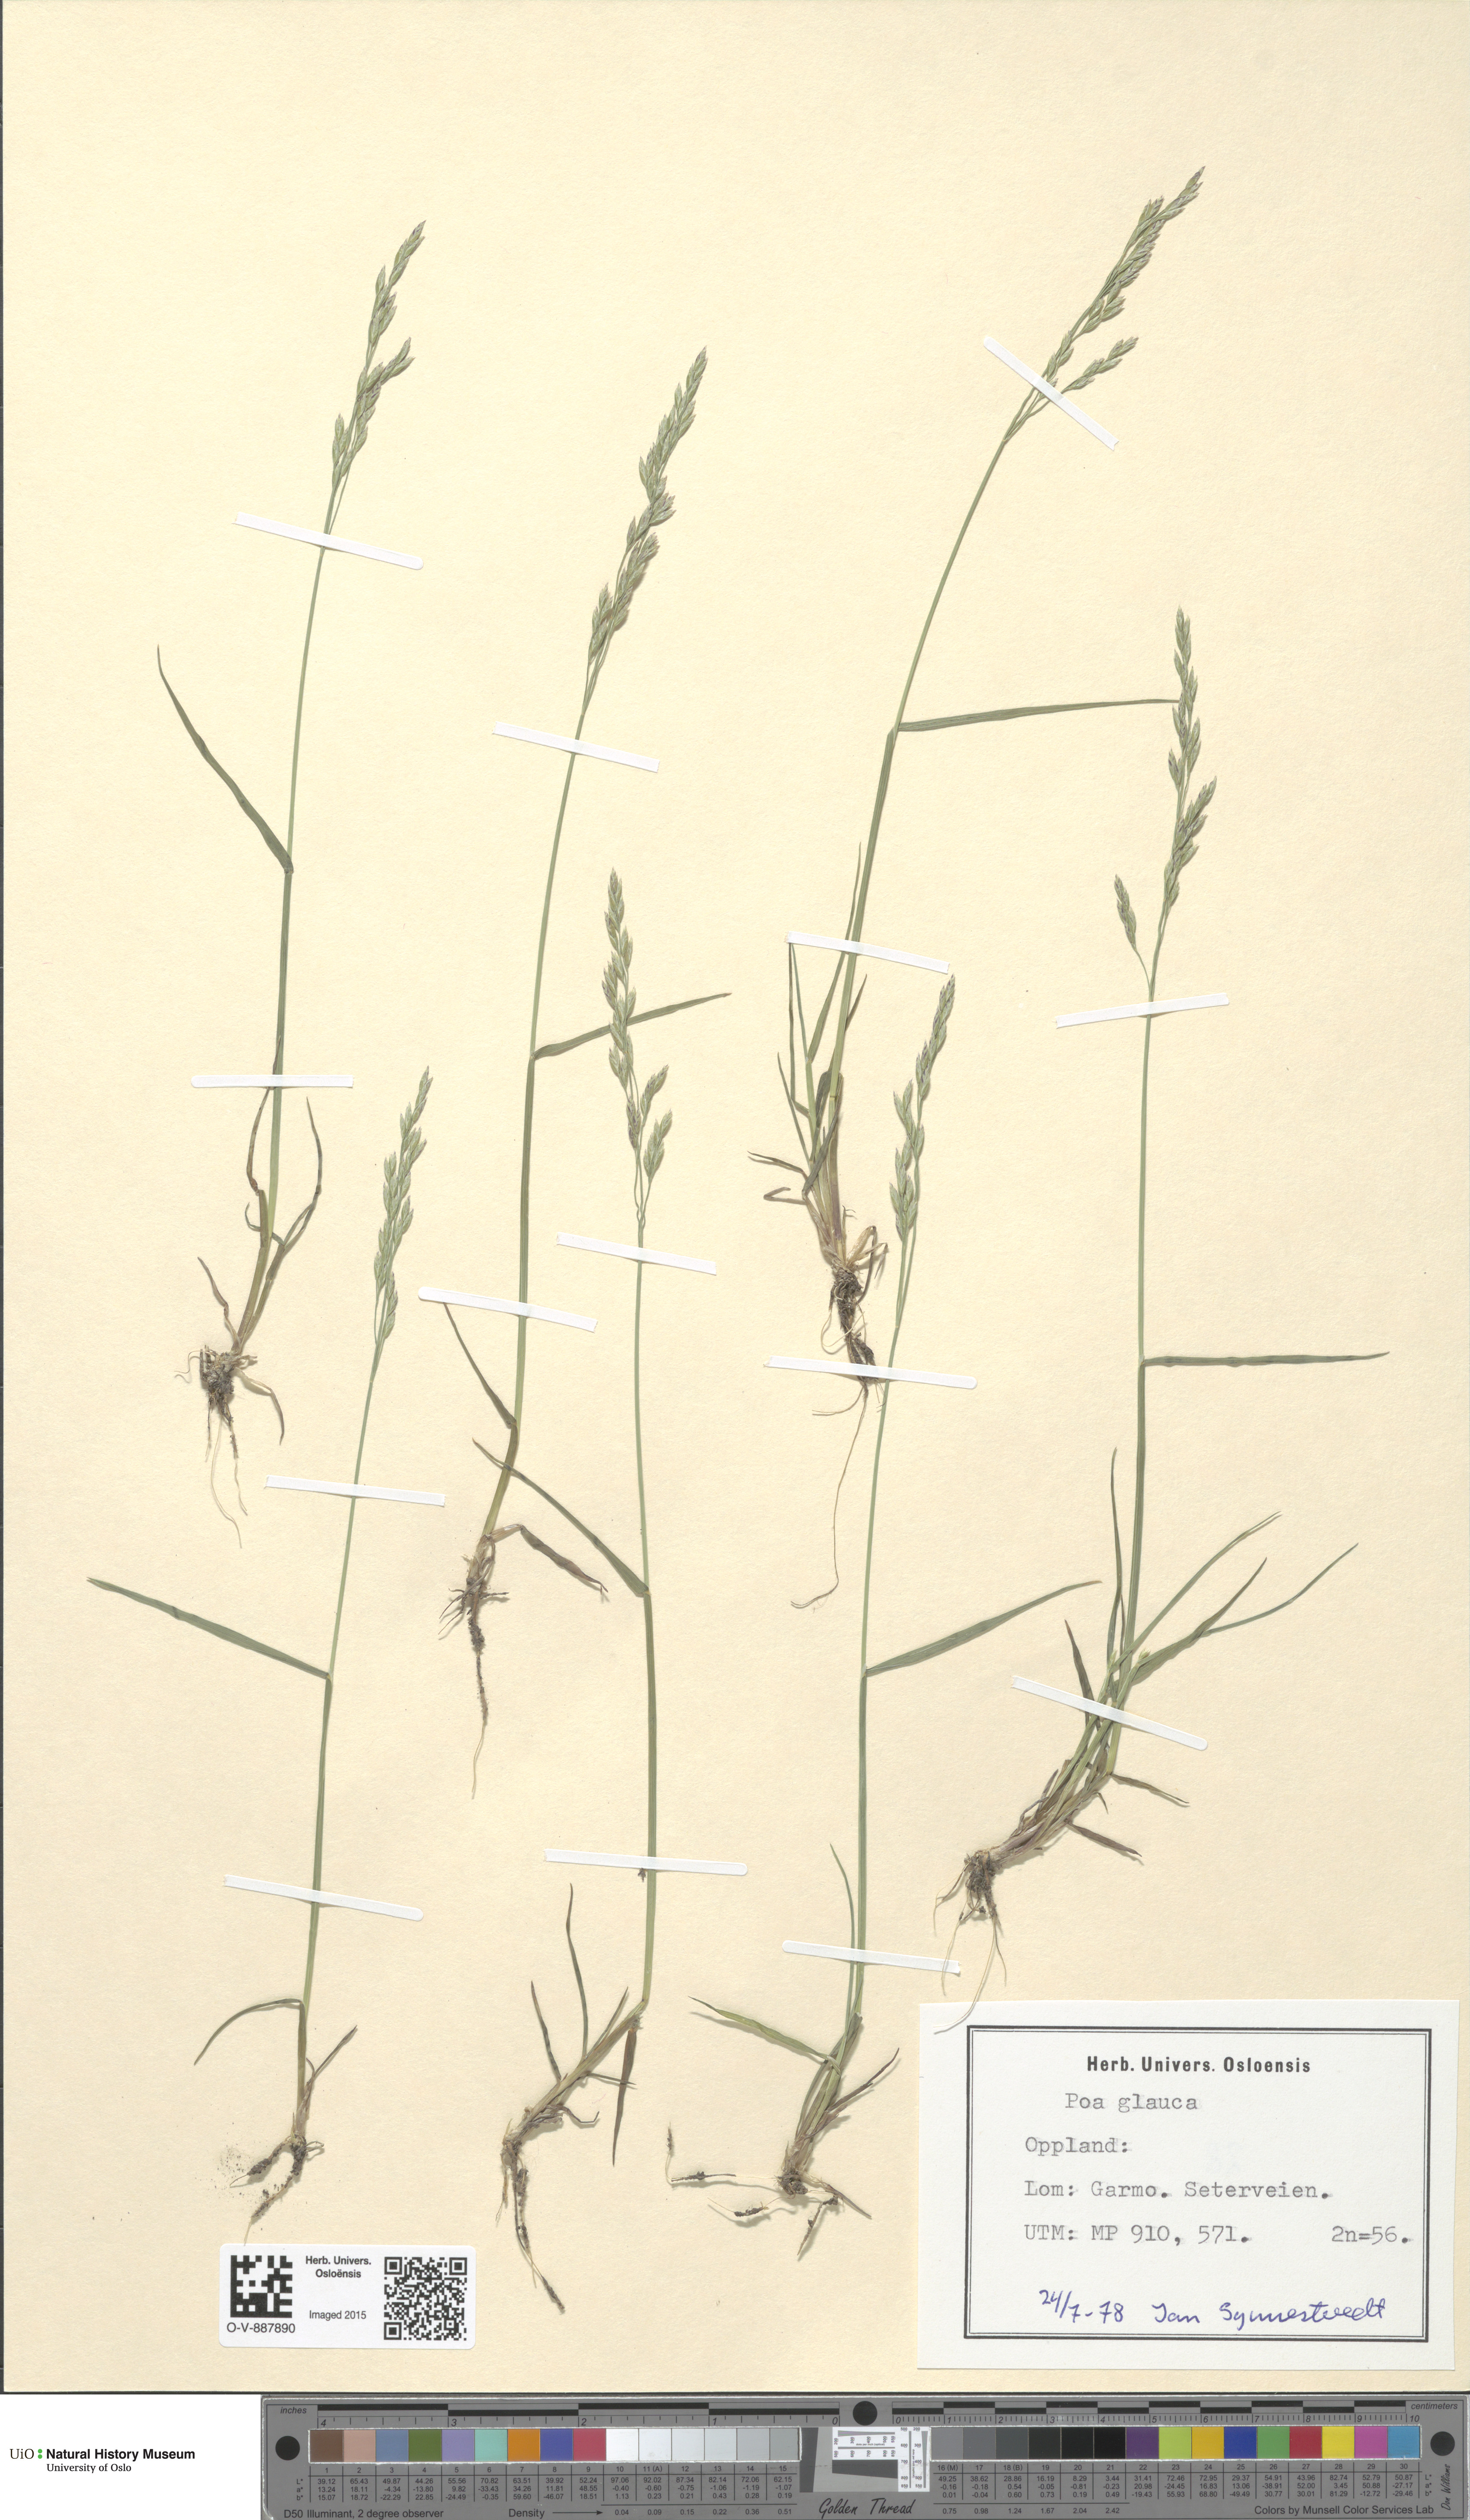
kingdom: Plantae
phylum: Tracheophyta
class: Liliopsida
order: Poales
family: Poaceae
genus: Poa
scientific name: Poa glauca
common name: Glaucous bluegrass
